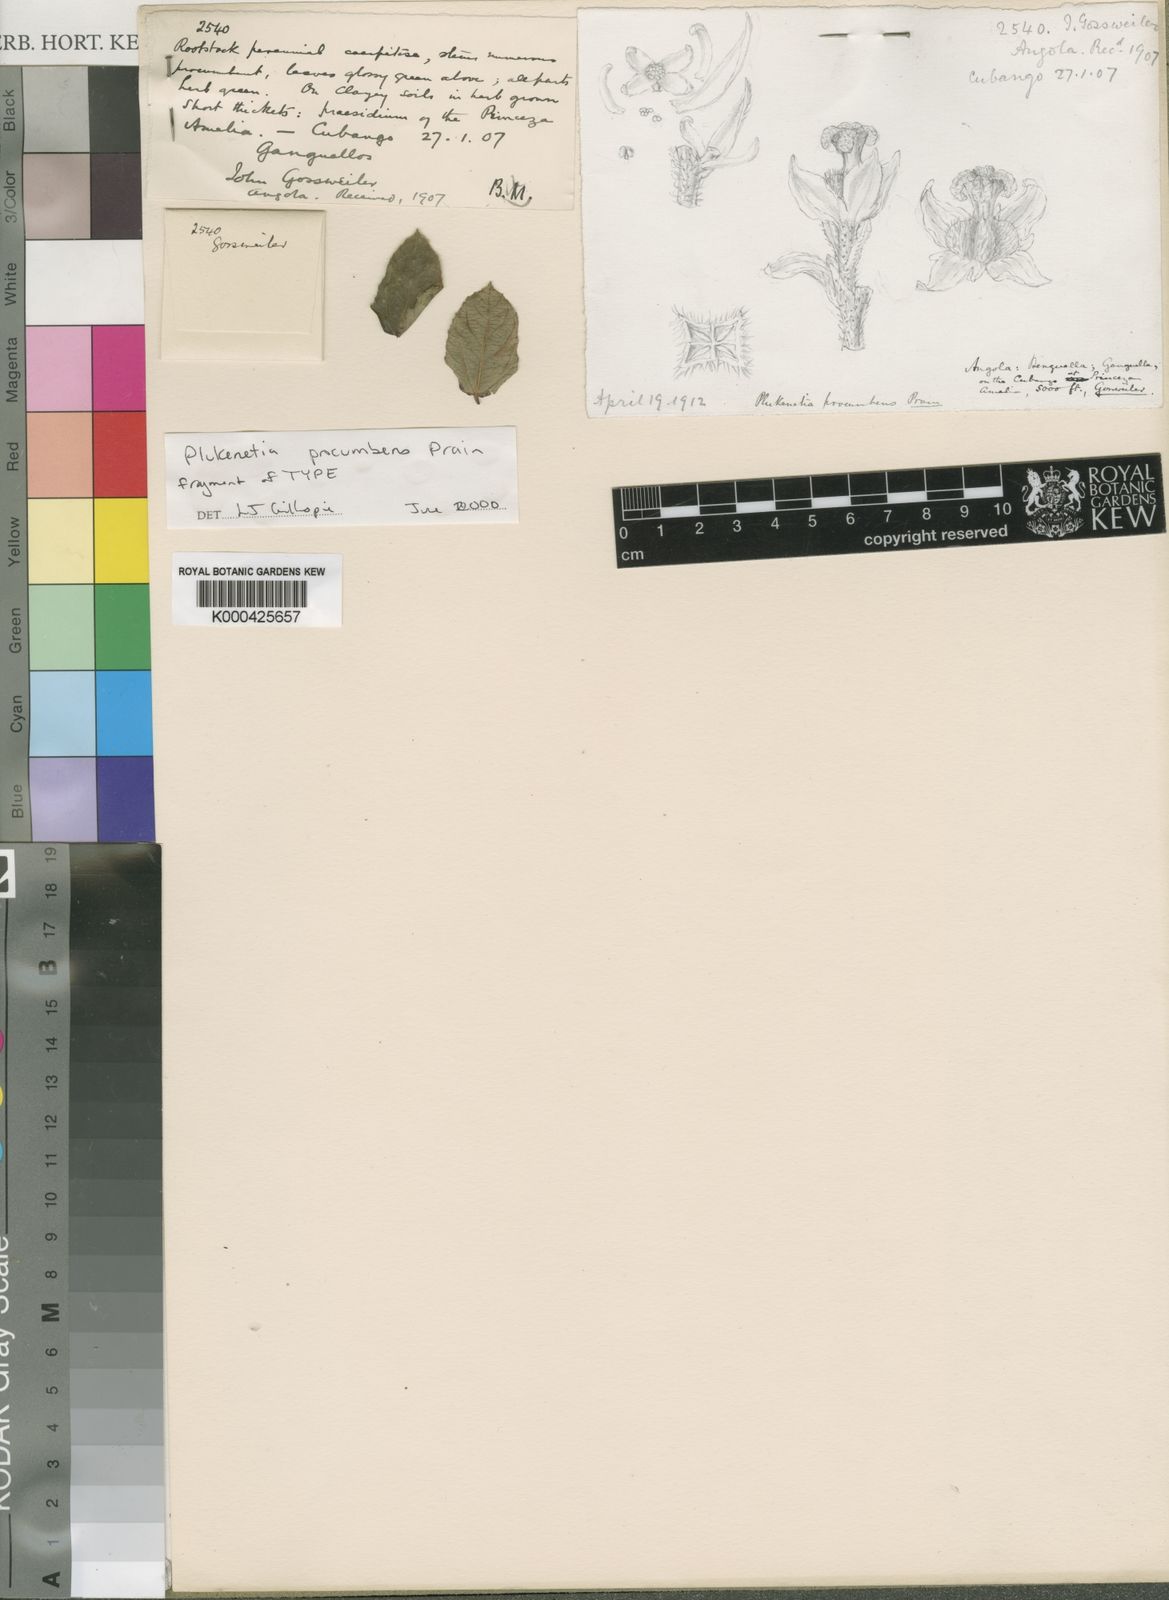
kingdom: Plantae
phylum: Tracheophyta
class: Magnoliopsida
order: Malpighiales
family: Euphorbiaceae
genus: Plukenetia
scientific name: Plukenetia
